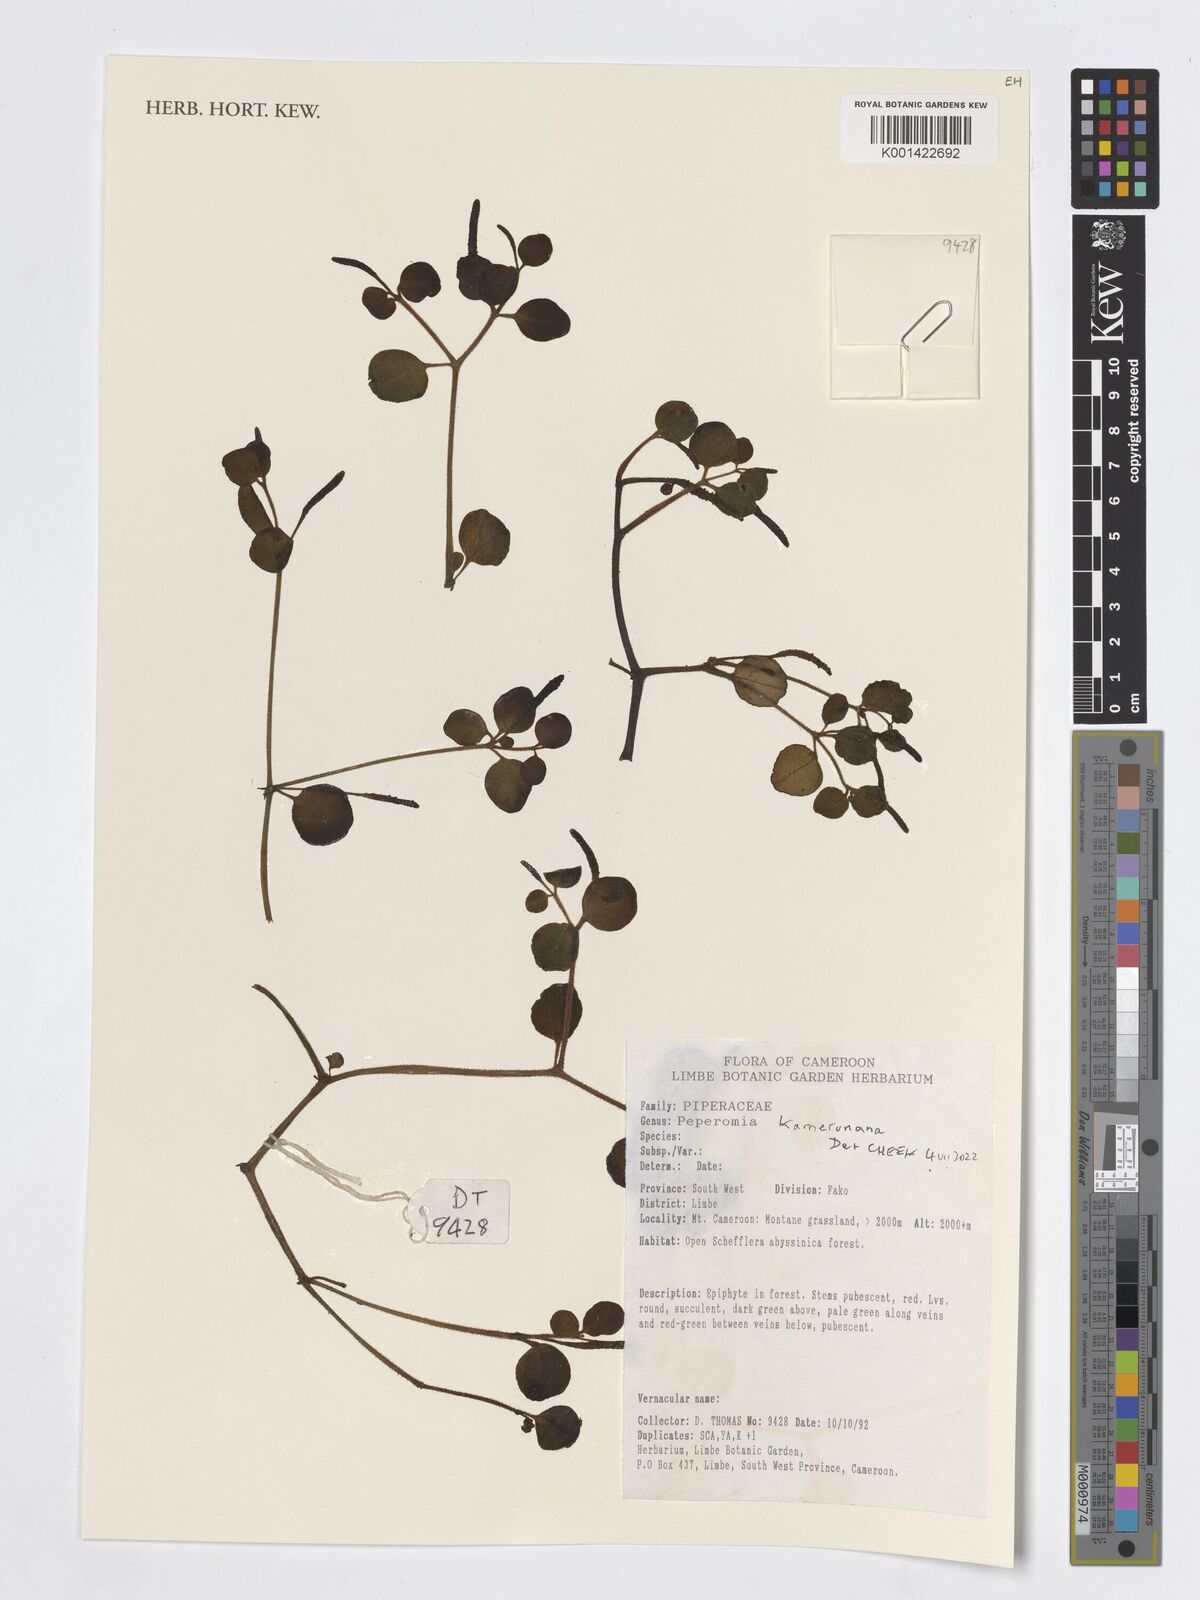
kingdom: Plantae
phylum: Tracheophyta
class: Magnoliopsida
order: Piperales
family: Piperaceae
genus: Peperomia
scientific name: Peperomia kamerunana
